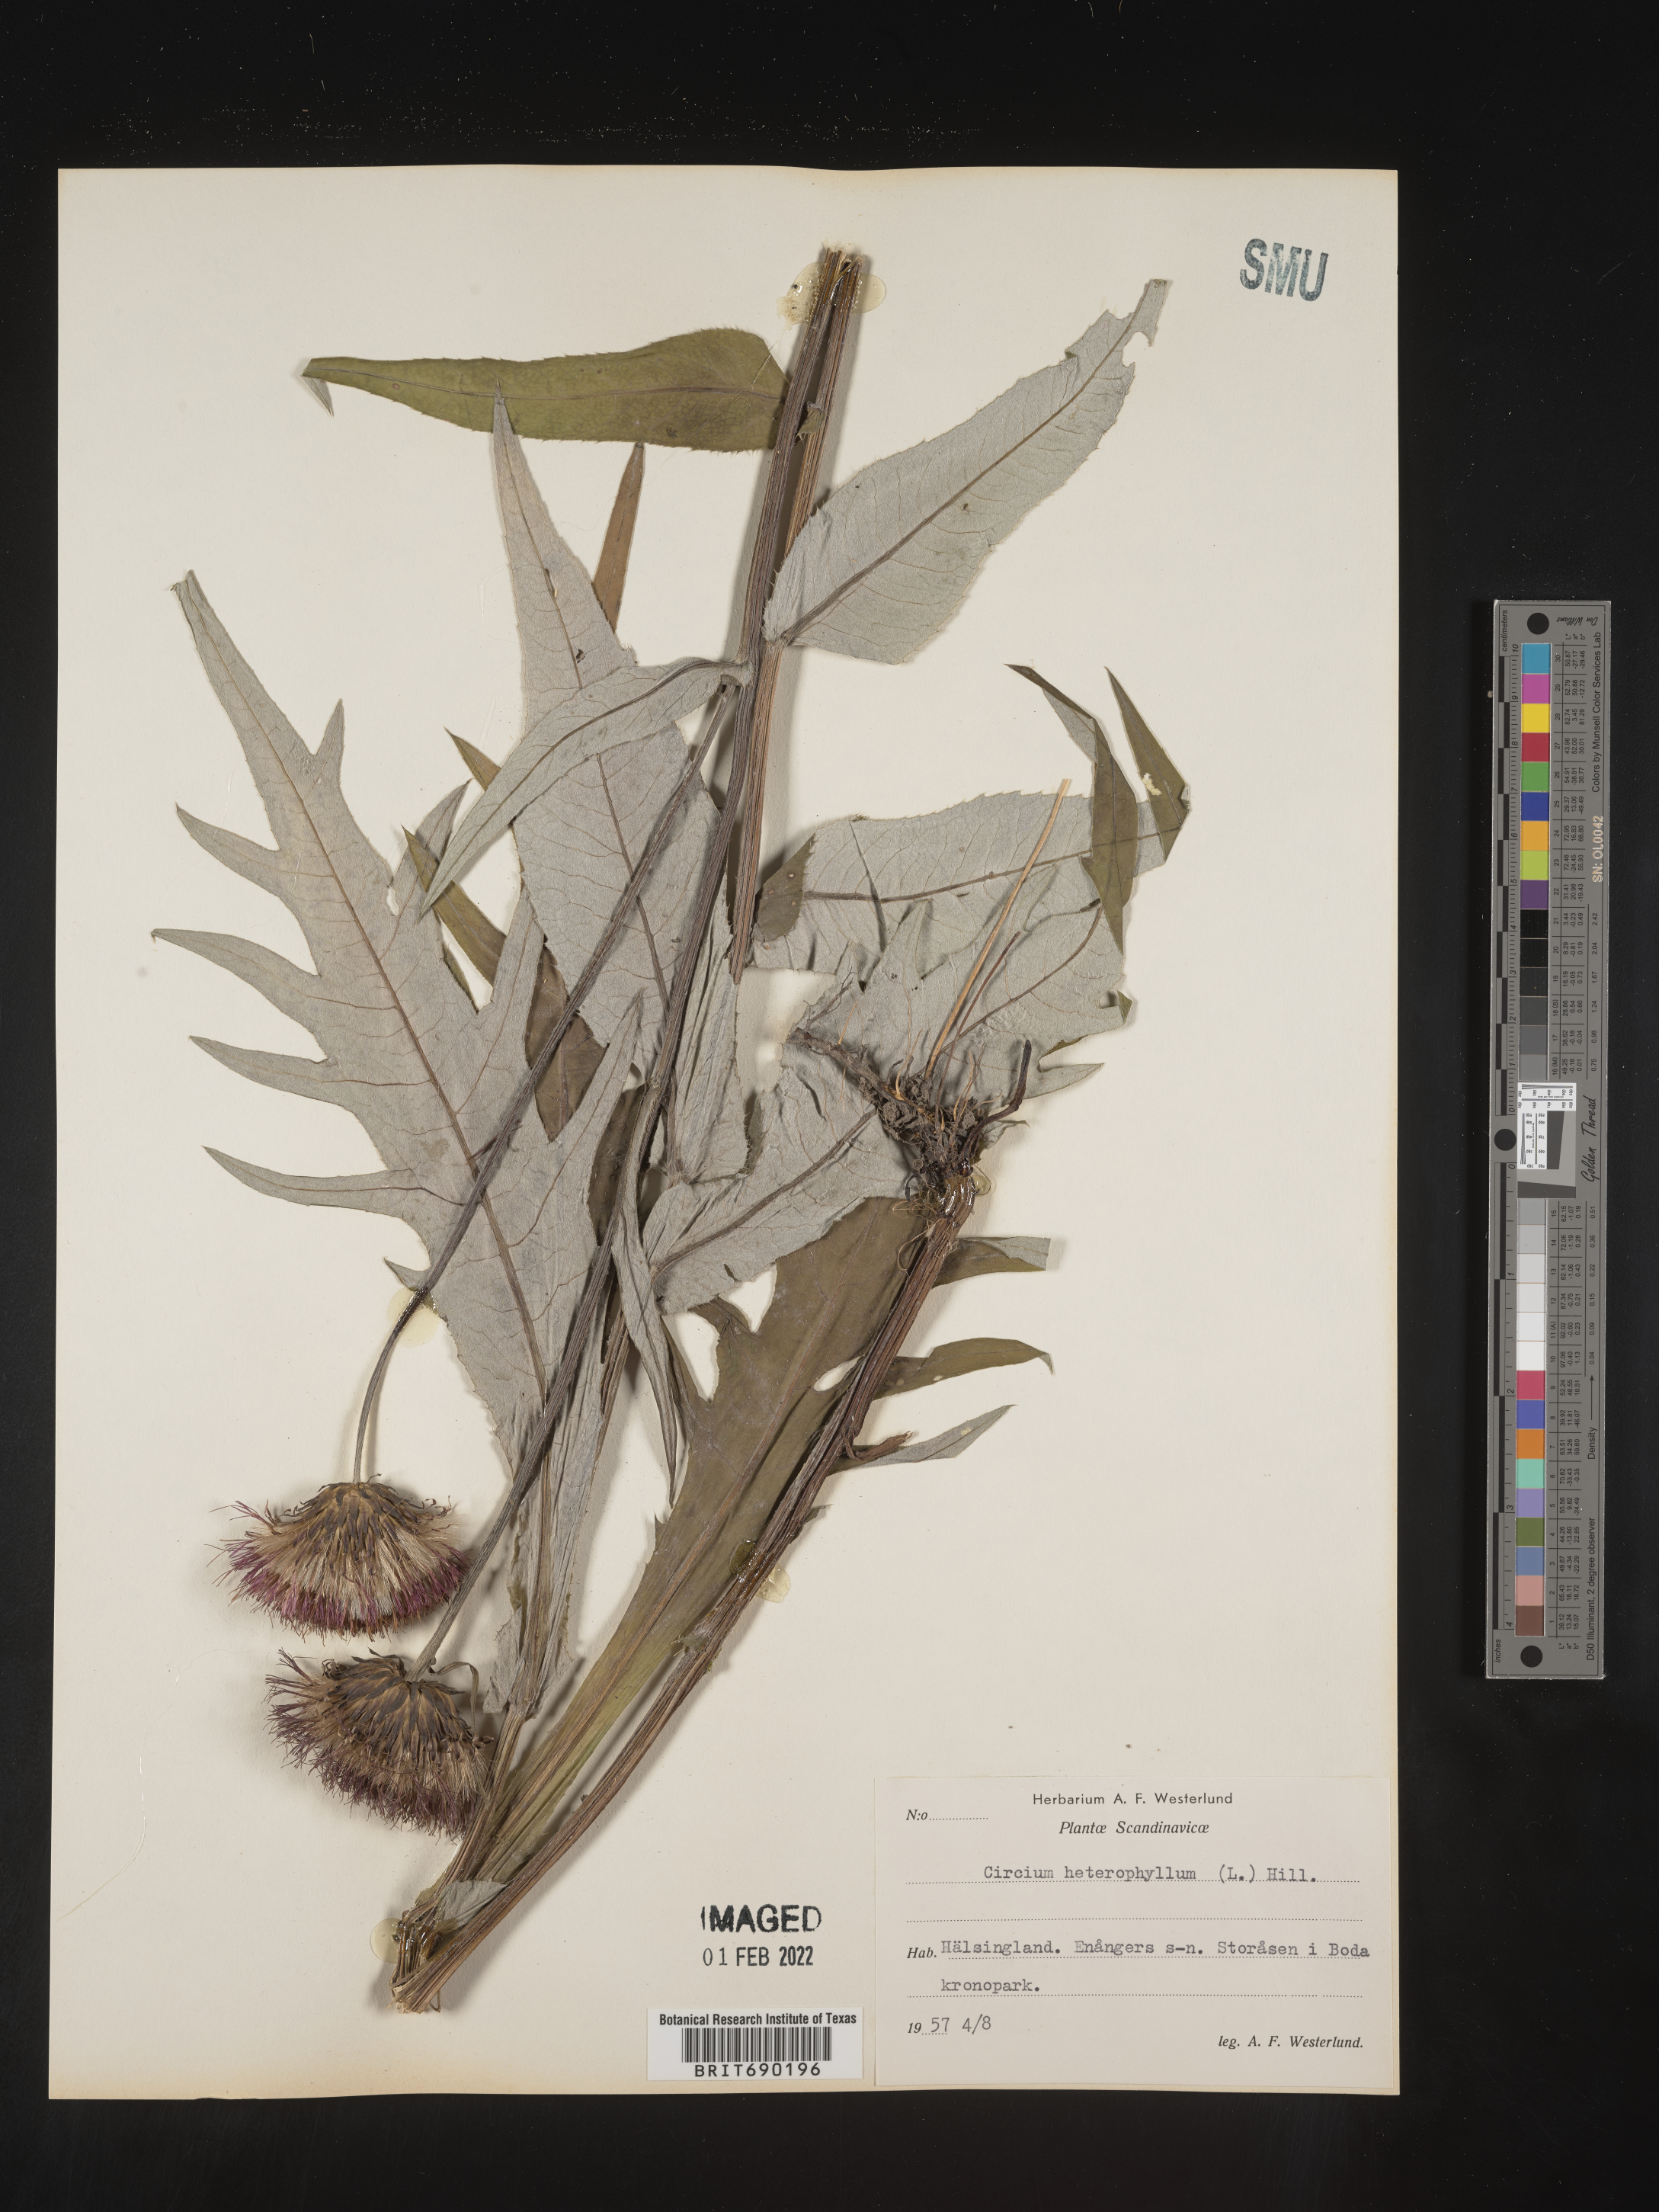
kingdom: Plantae
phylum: Tracheophyta
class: Magnoliopsida
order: Asterales
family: Asteraceae
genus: Cirsium
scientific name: Cirsium
